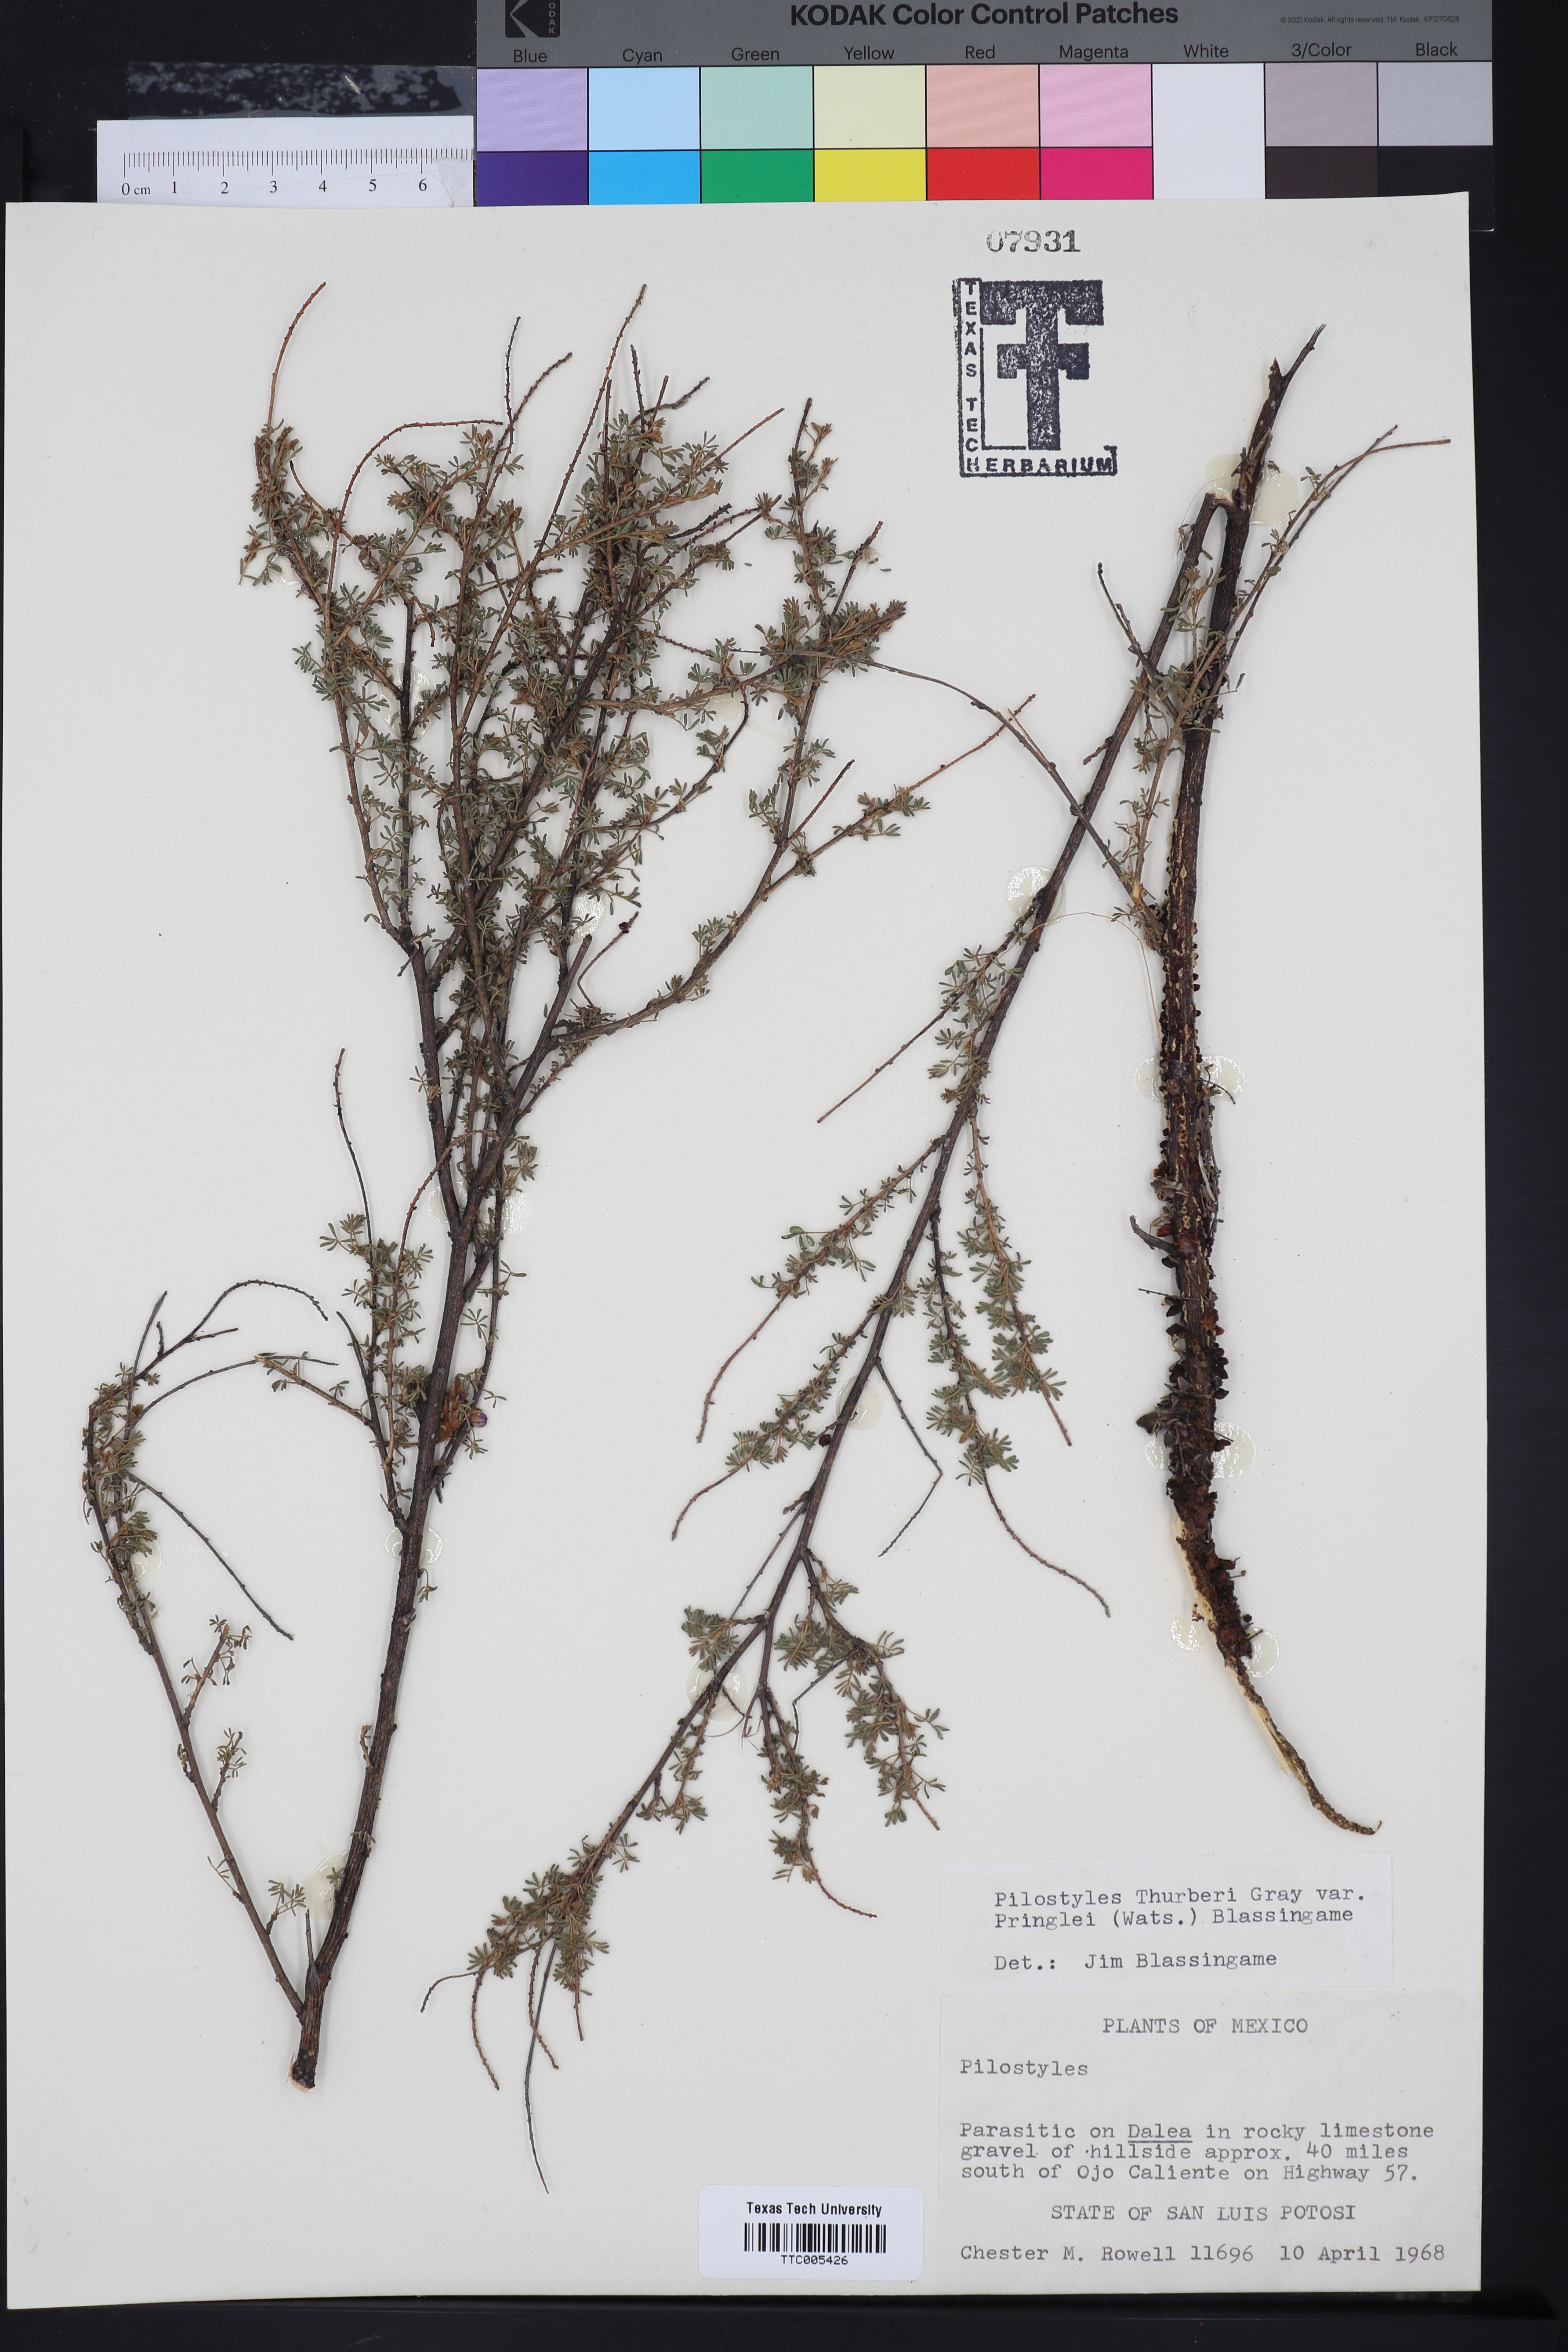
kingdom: Plantae
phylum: Tracheophyta
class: Magnoliopsida
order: Cucurbitales
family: Apodanthaceae
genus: Pilostyles
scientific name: Pilostyles thurberi
